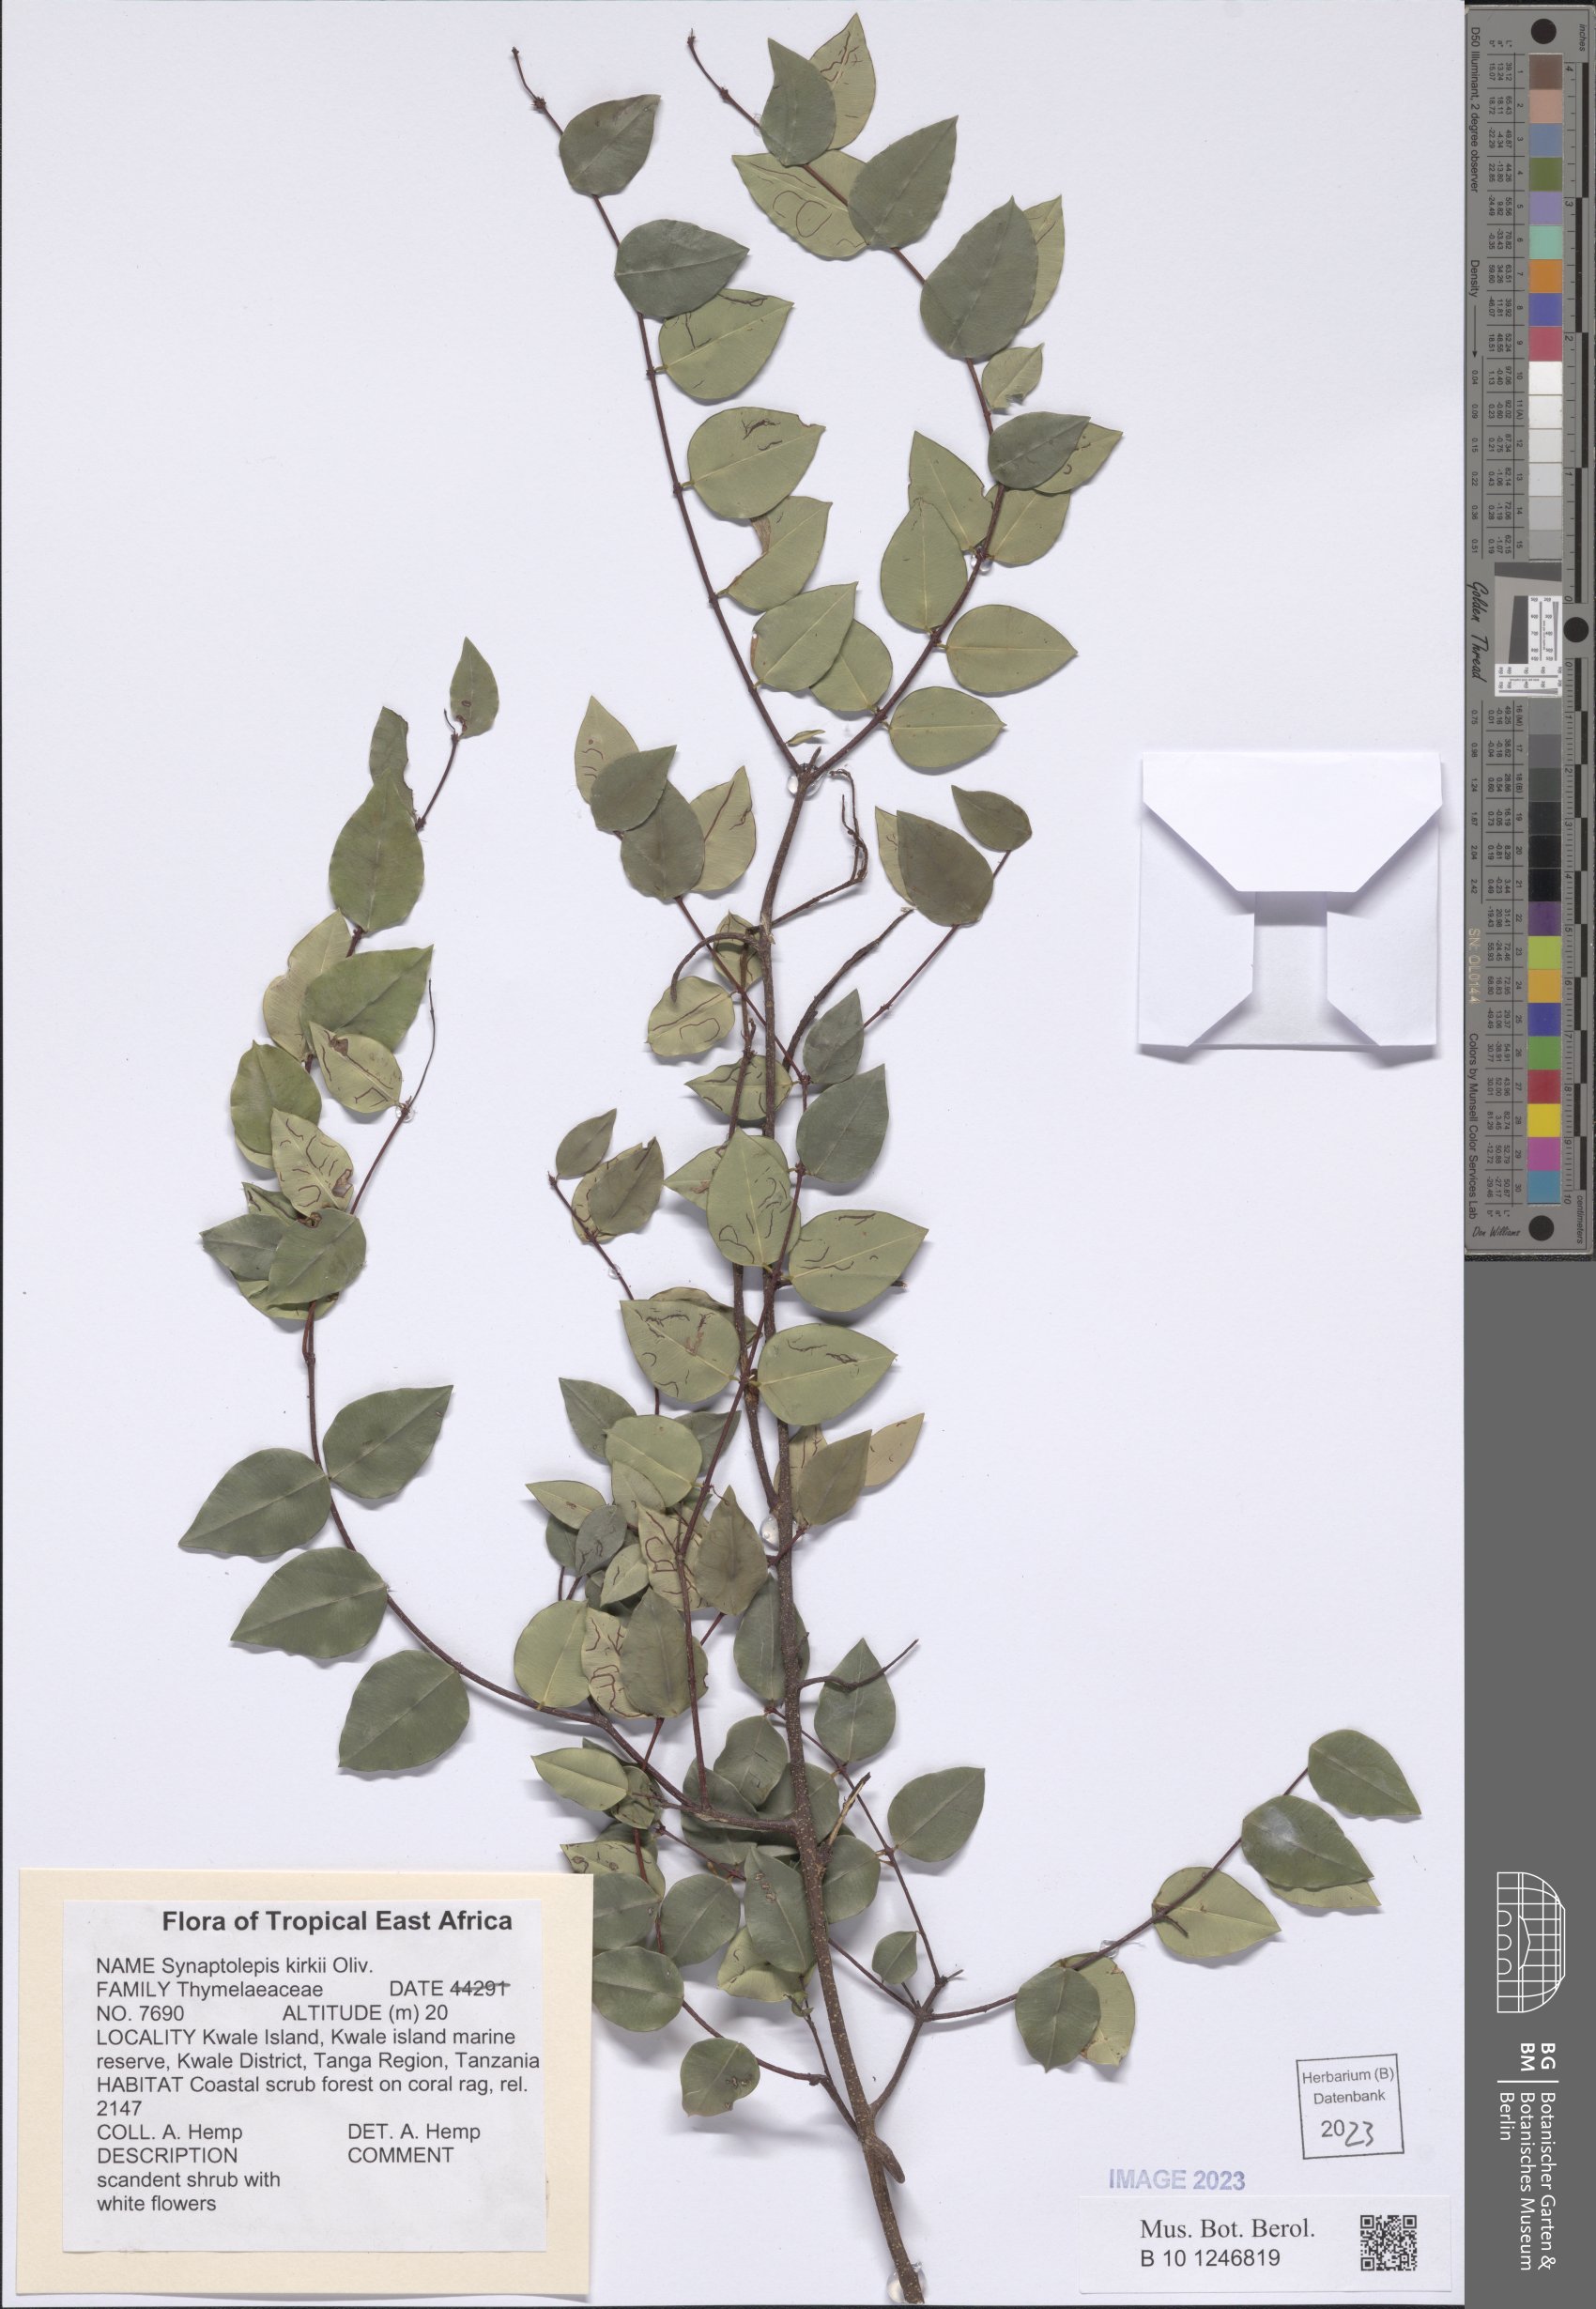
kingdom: Plantae
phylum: Tracheophyta
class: Magnoliopsida
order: Malvales
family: Thymelaeaceae
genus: Synaptolepis
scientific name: Synaptolepis kirkii
